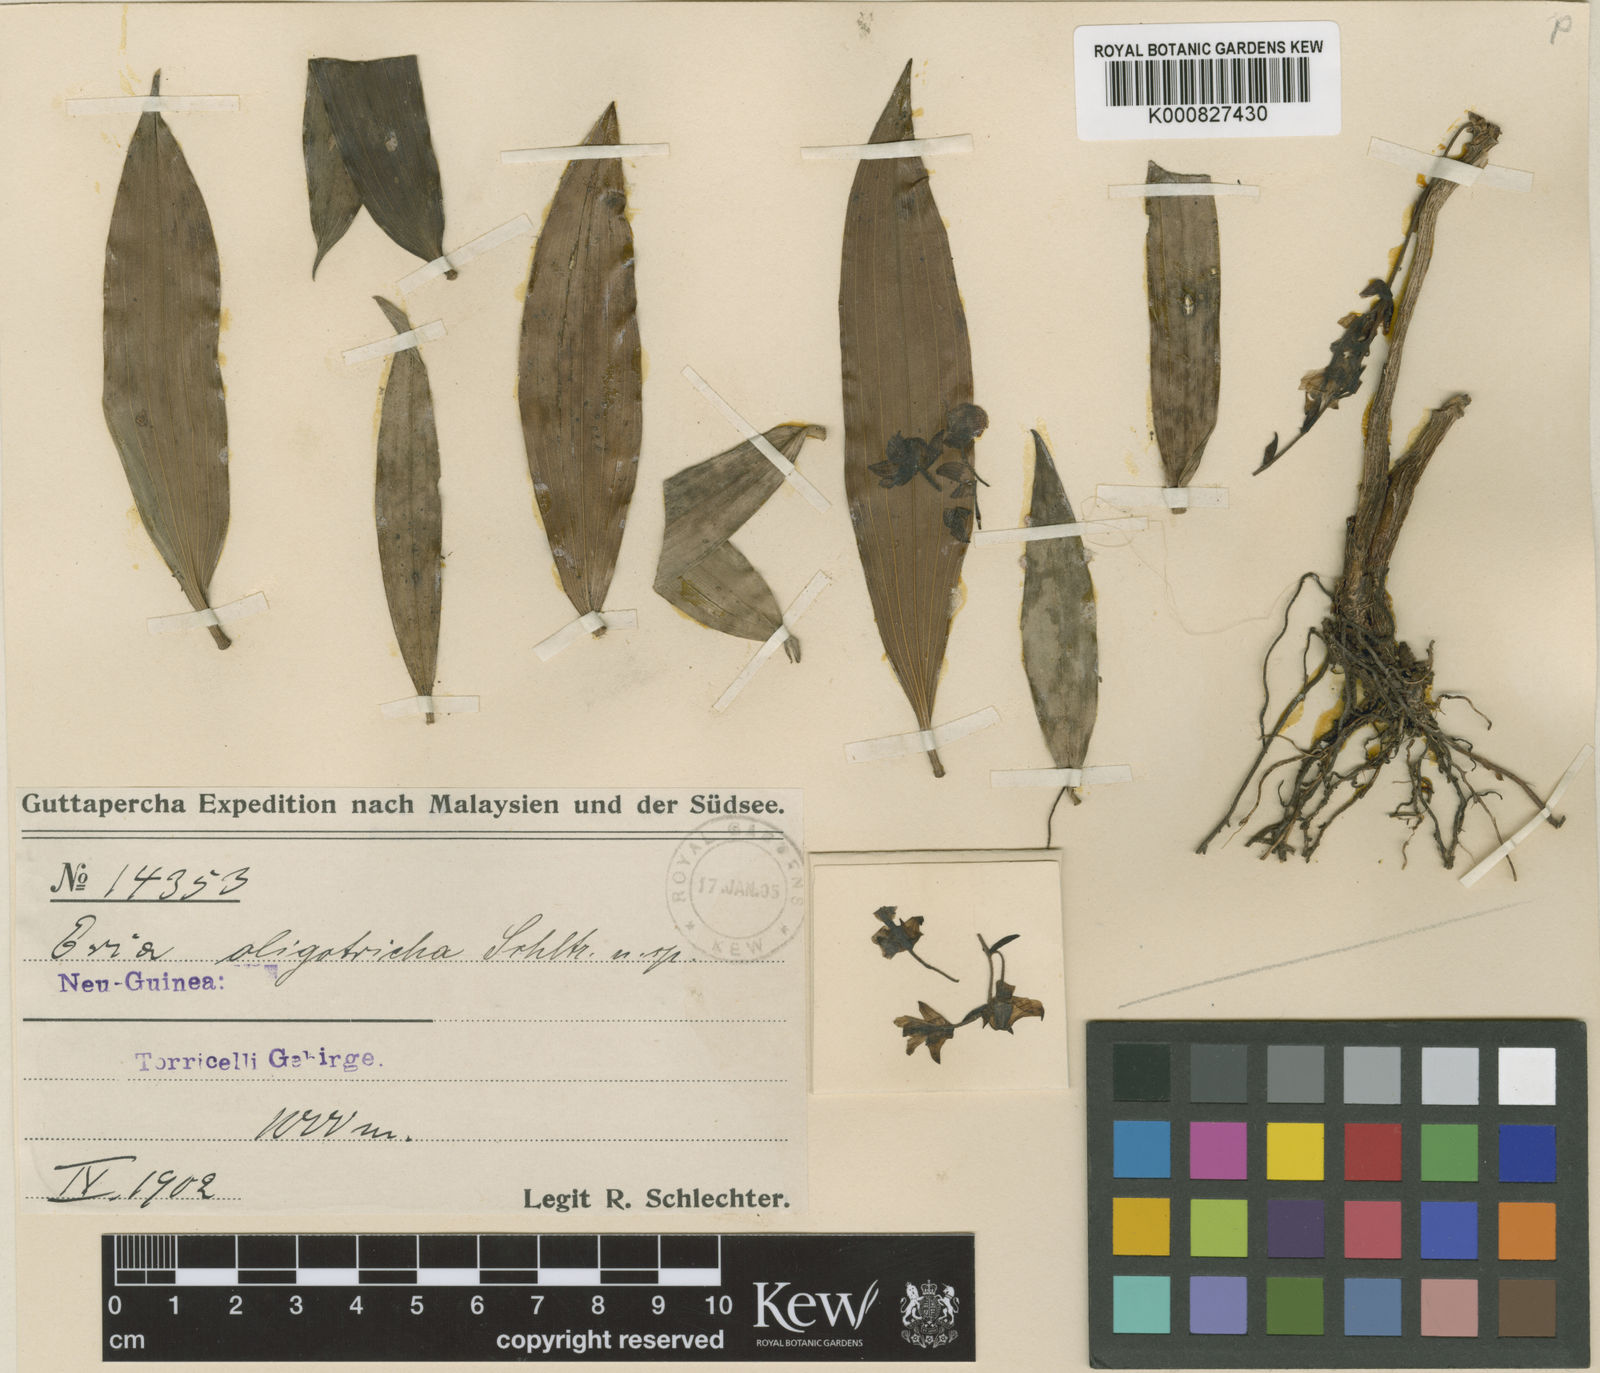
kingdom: Plantae
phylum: Tracheophyta
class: Liliopsida
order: Asparagales
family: Orchidaceae
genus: Pinalia
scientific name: Pinalia oligotricha
